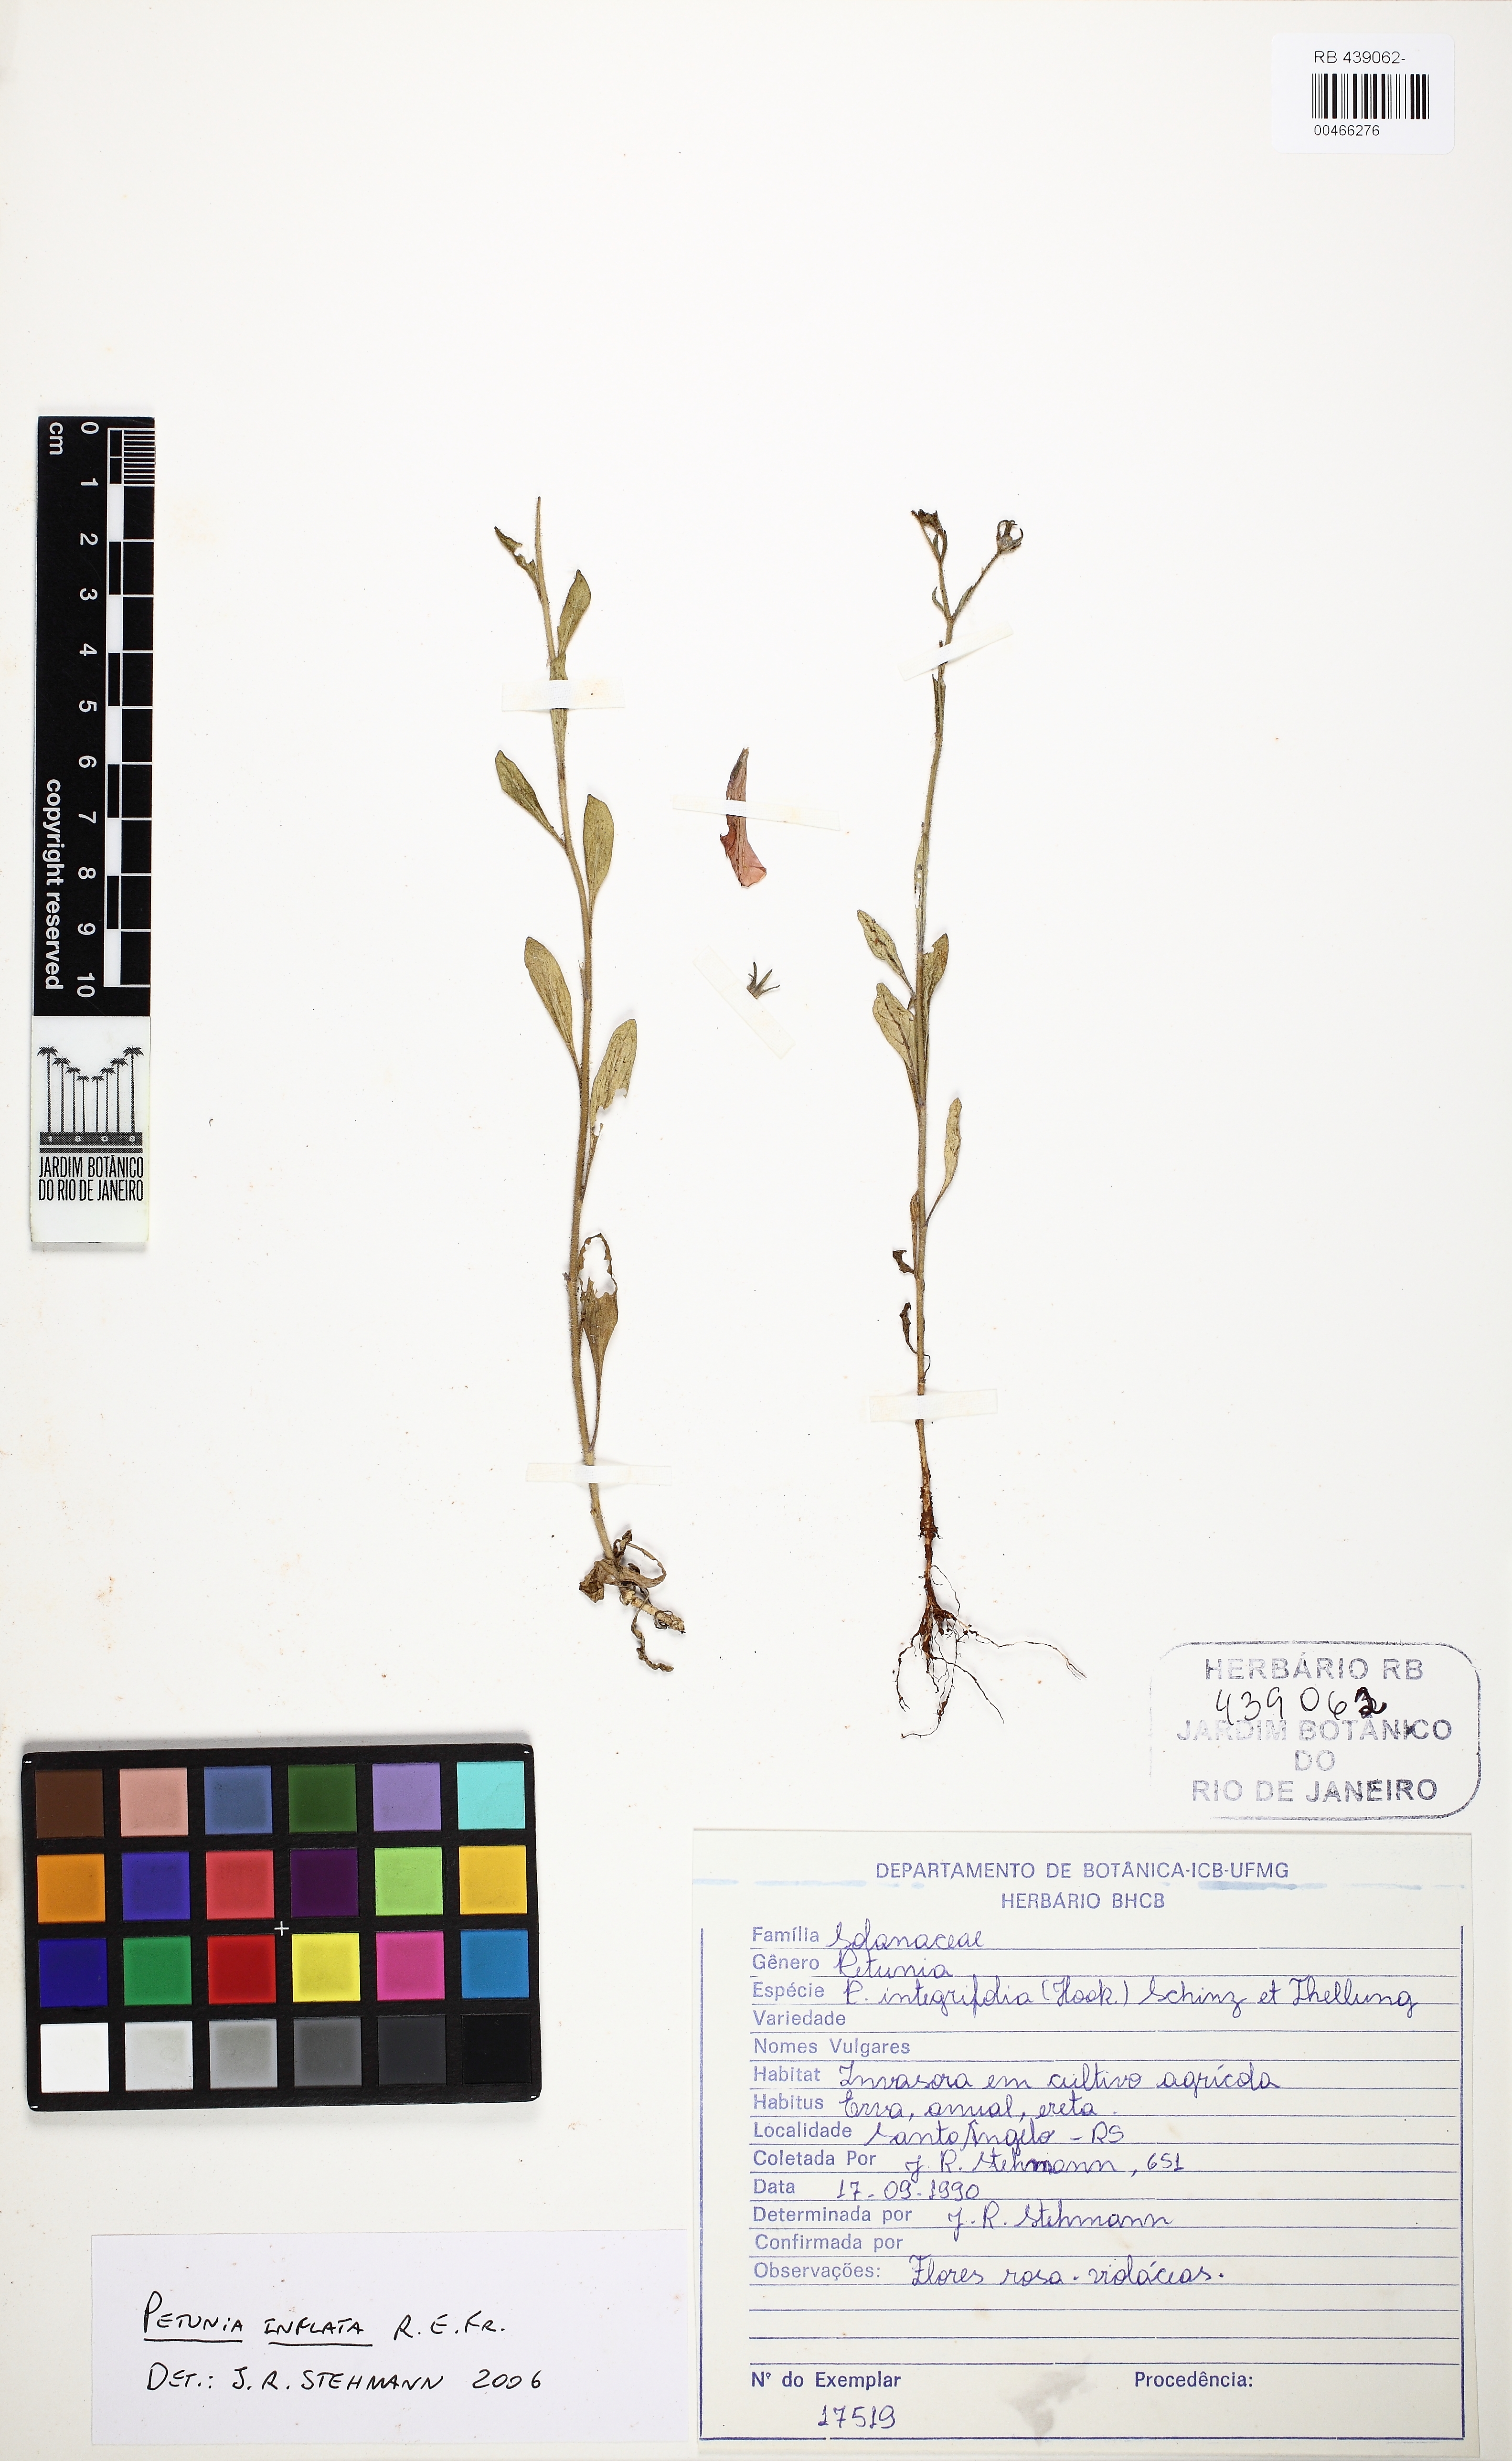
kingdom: Plantae
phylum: Tracheophyta
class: Magnoliopsida
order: Solanales
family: Solanaceae
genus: Petunia
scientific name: Petunia inflata
